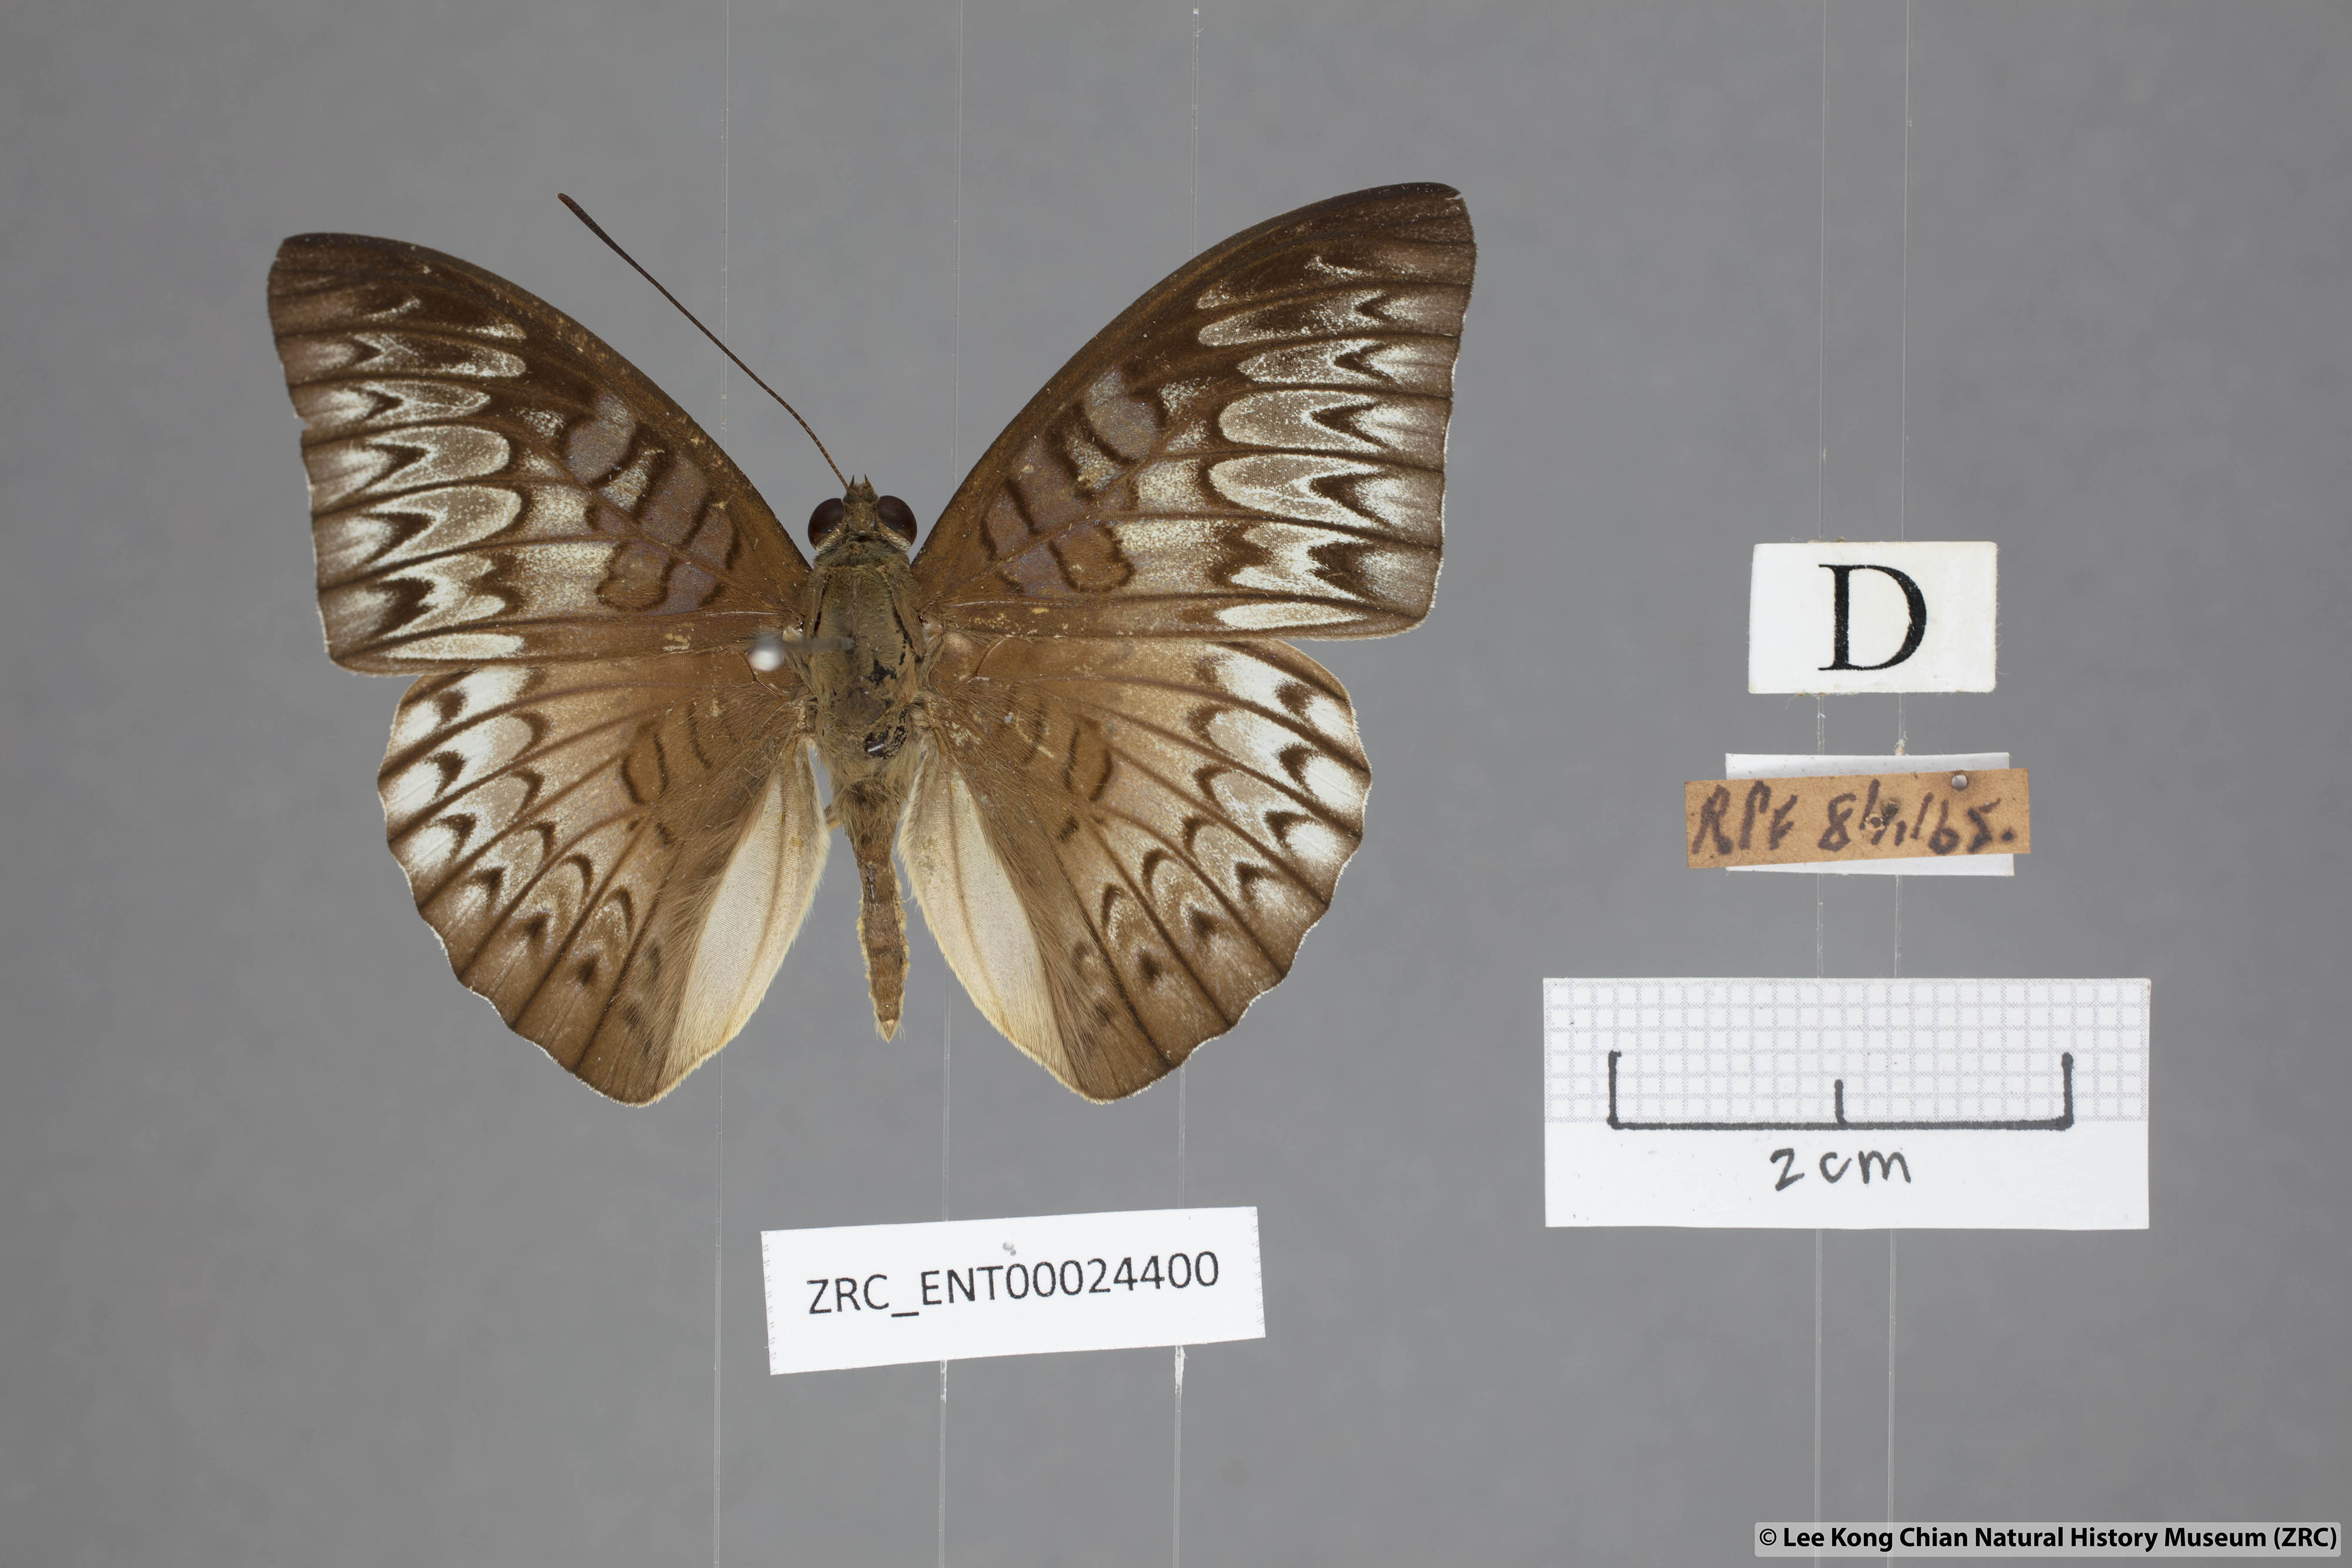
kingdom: Animalia
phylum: Arthropoda
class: Insecta
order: Lepidoptera
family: Nymphalidae
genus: Tanaecia
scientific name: Tanaecia palguna
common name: Long-lined viscount
